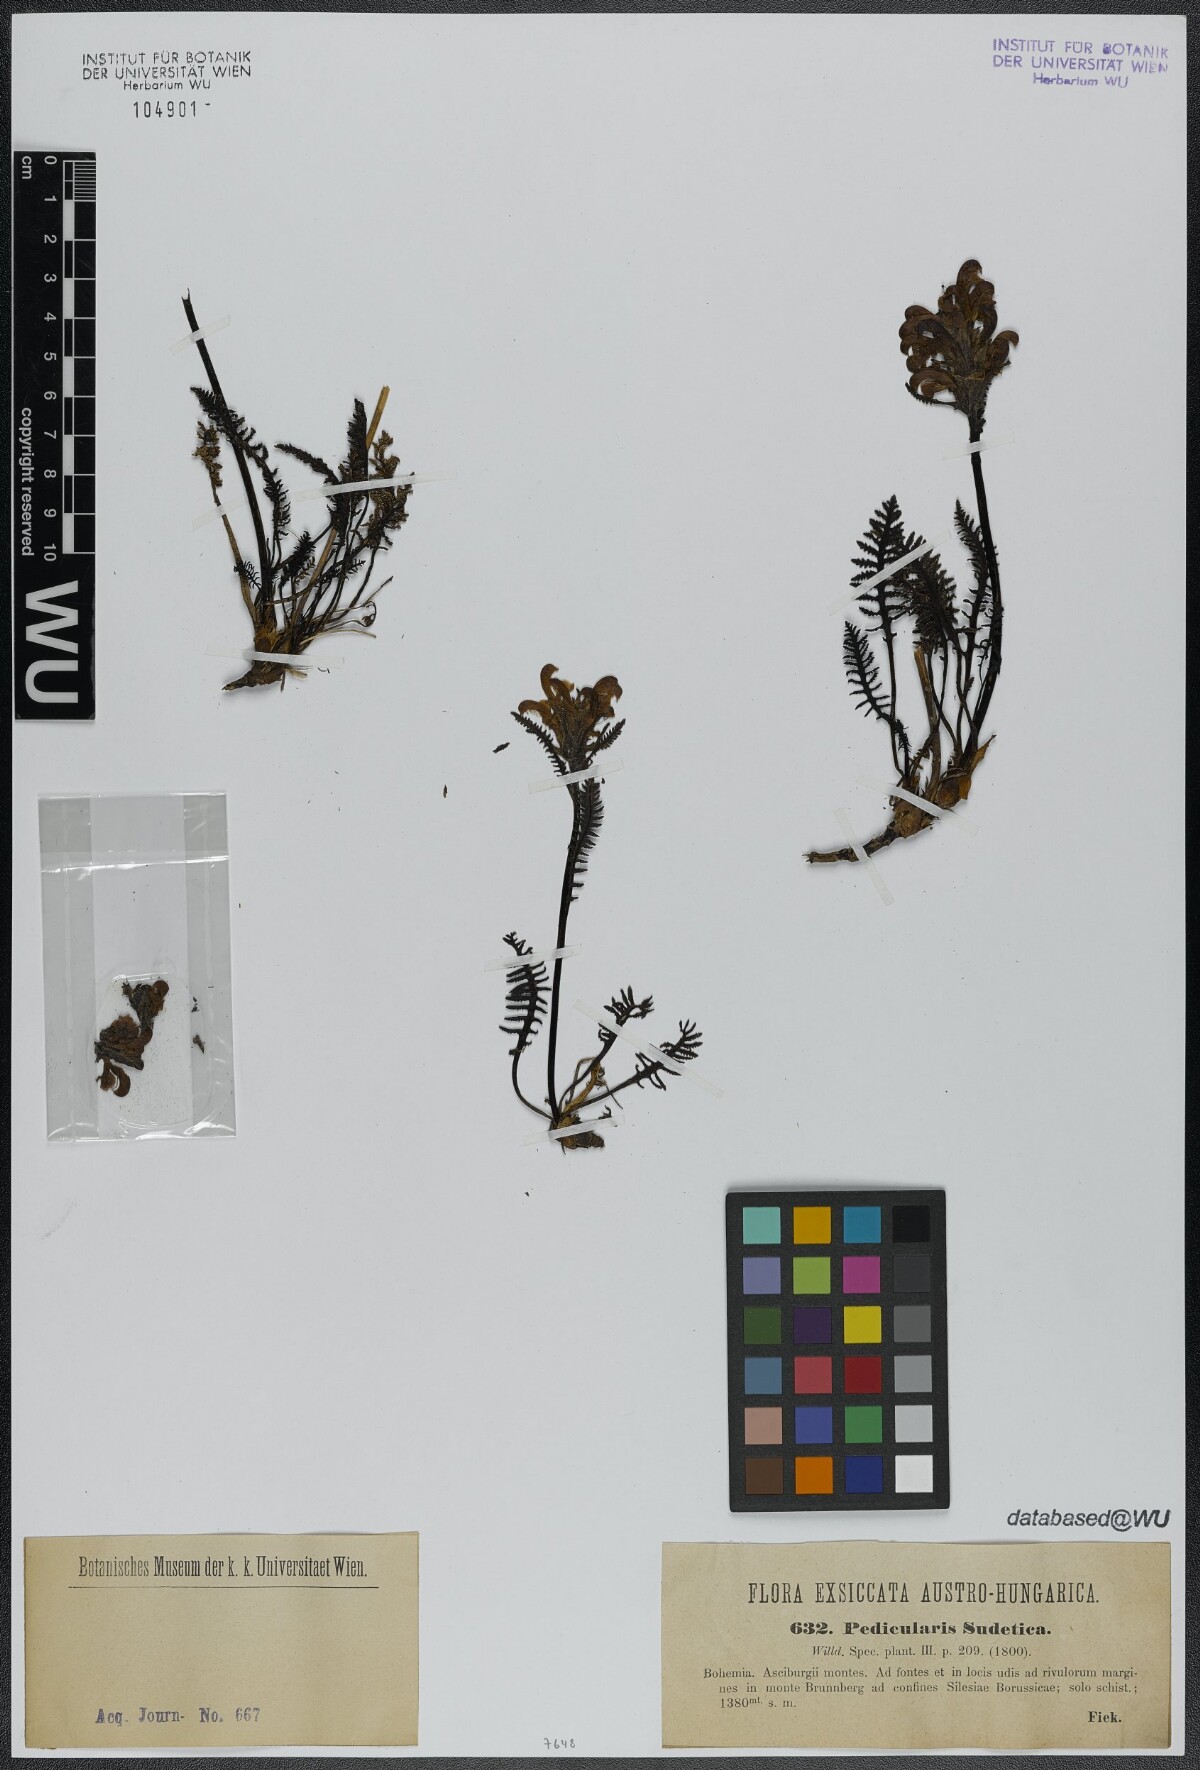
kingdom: Plantae
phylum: Tracheophyta
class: Magnoliopsida
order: Lamiales
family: Orobanchaceae
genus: Pedicularis
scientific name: Pedicularis sudetica
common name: Sudeten lousewort
